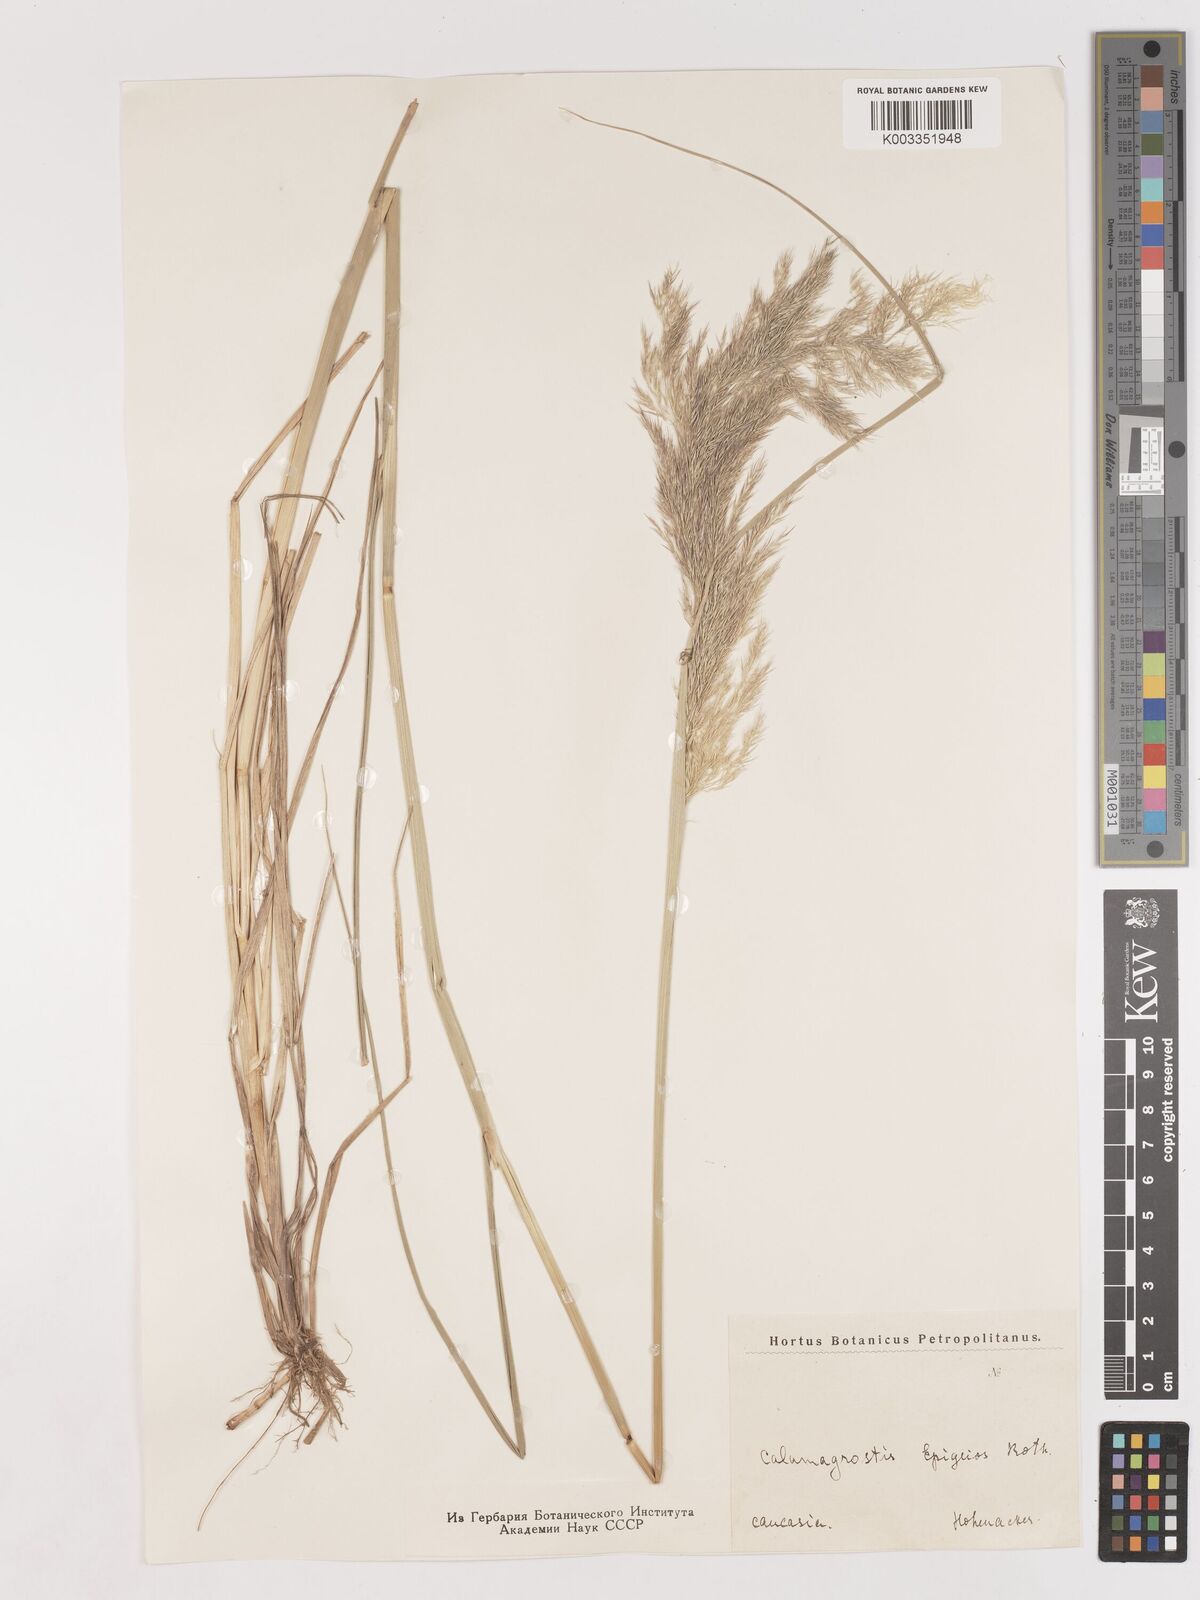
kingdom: Plantae
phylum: Tracheophyta
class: Liliopsida
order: Poales
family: Poaceae
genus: Calamagrostis
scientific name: Calamagrostis epigejos
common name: Wood small-reed
